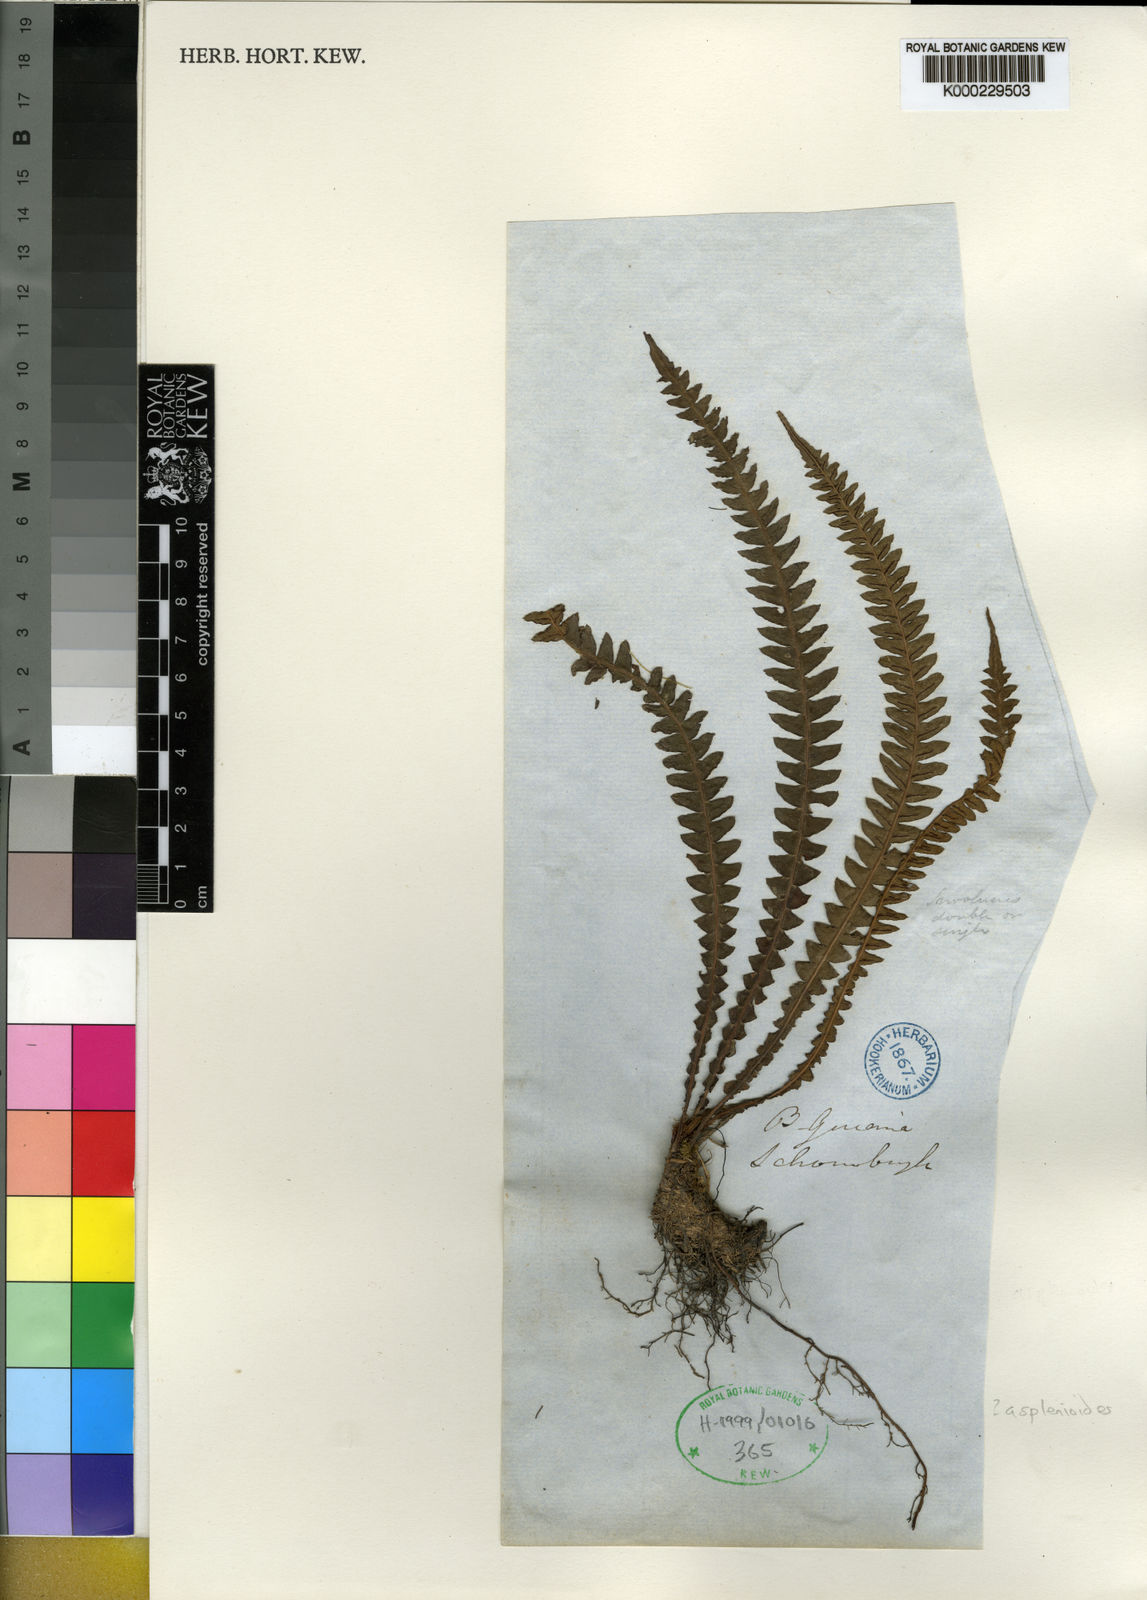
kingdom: Plantae
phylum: Tracheophyta
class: Polypodiopsida
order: Polypodiales
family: Blechnaceae
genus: Blechnum
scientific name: Blechnum asplenioides
